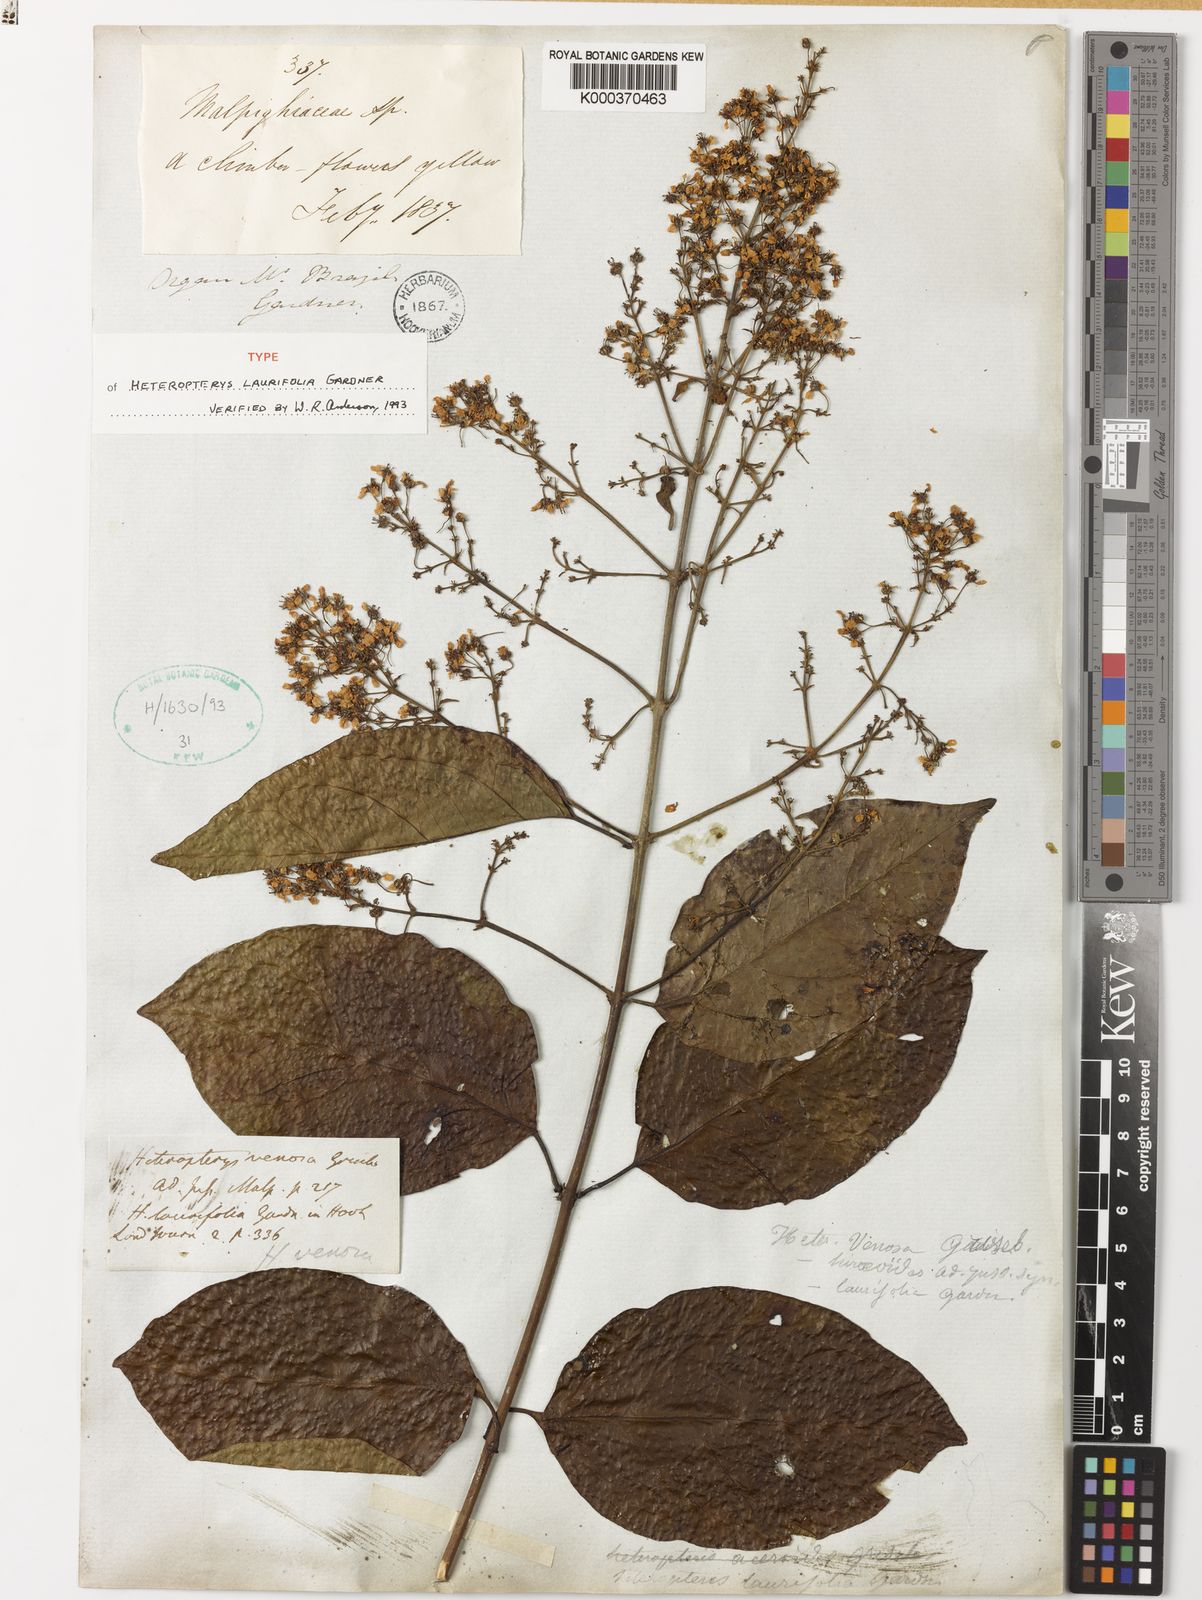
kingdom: Plantae
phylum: Tracheophyta
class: Magnoliopsida
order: Malpighiales
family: Malpighiaceae
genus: Heteropterys
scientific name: Heteropterys intermedia
